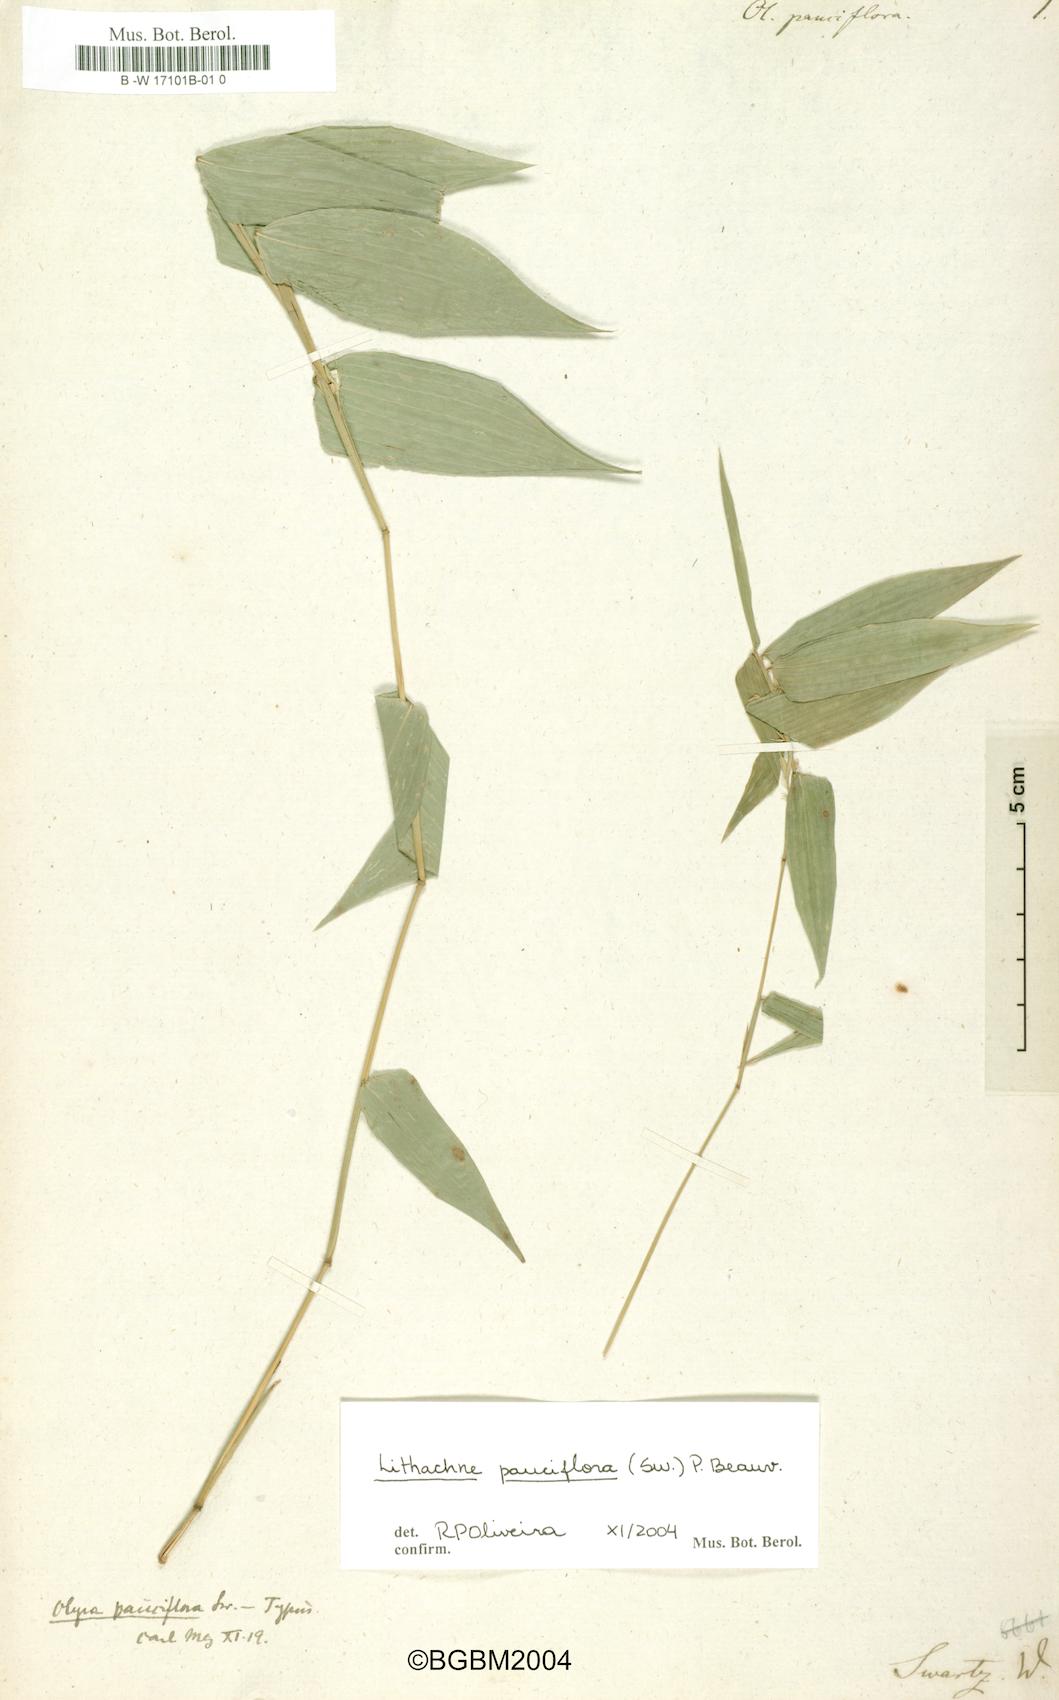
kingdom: Plantae
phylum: Tracheophyta
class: Liliopsida
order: Poales
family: Poaceae
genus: Lithachne
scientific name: Lithachne pauciflora
